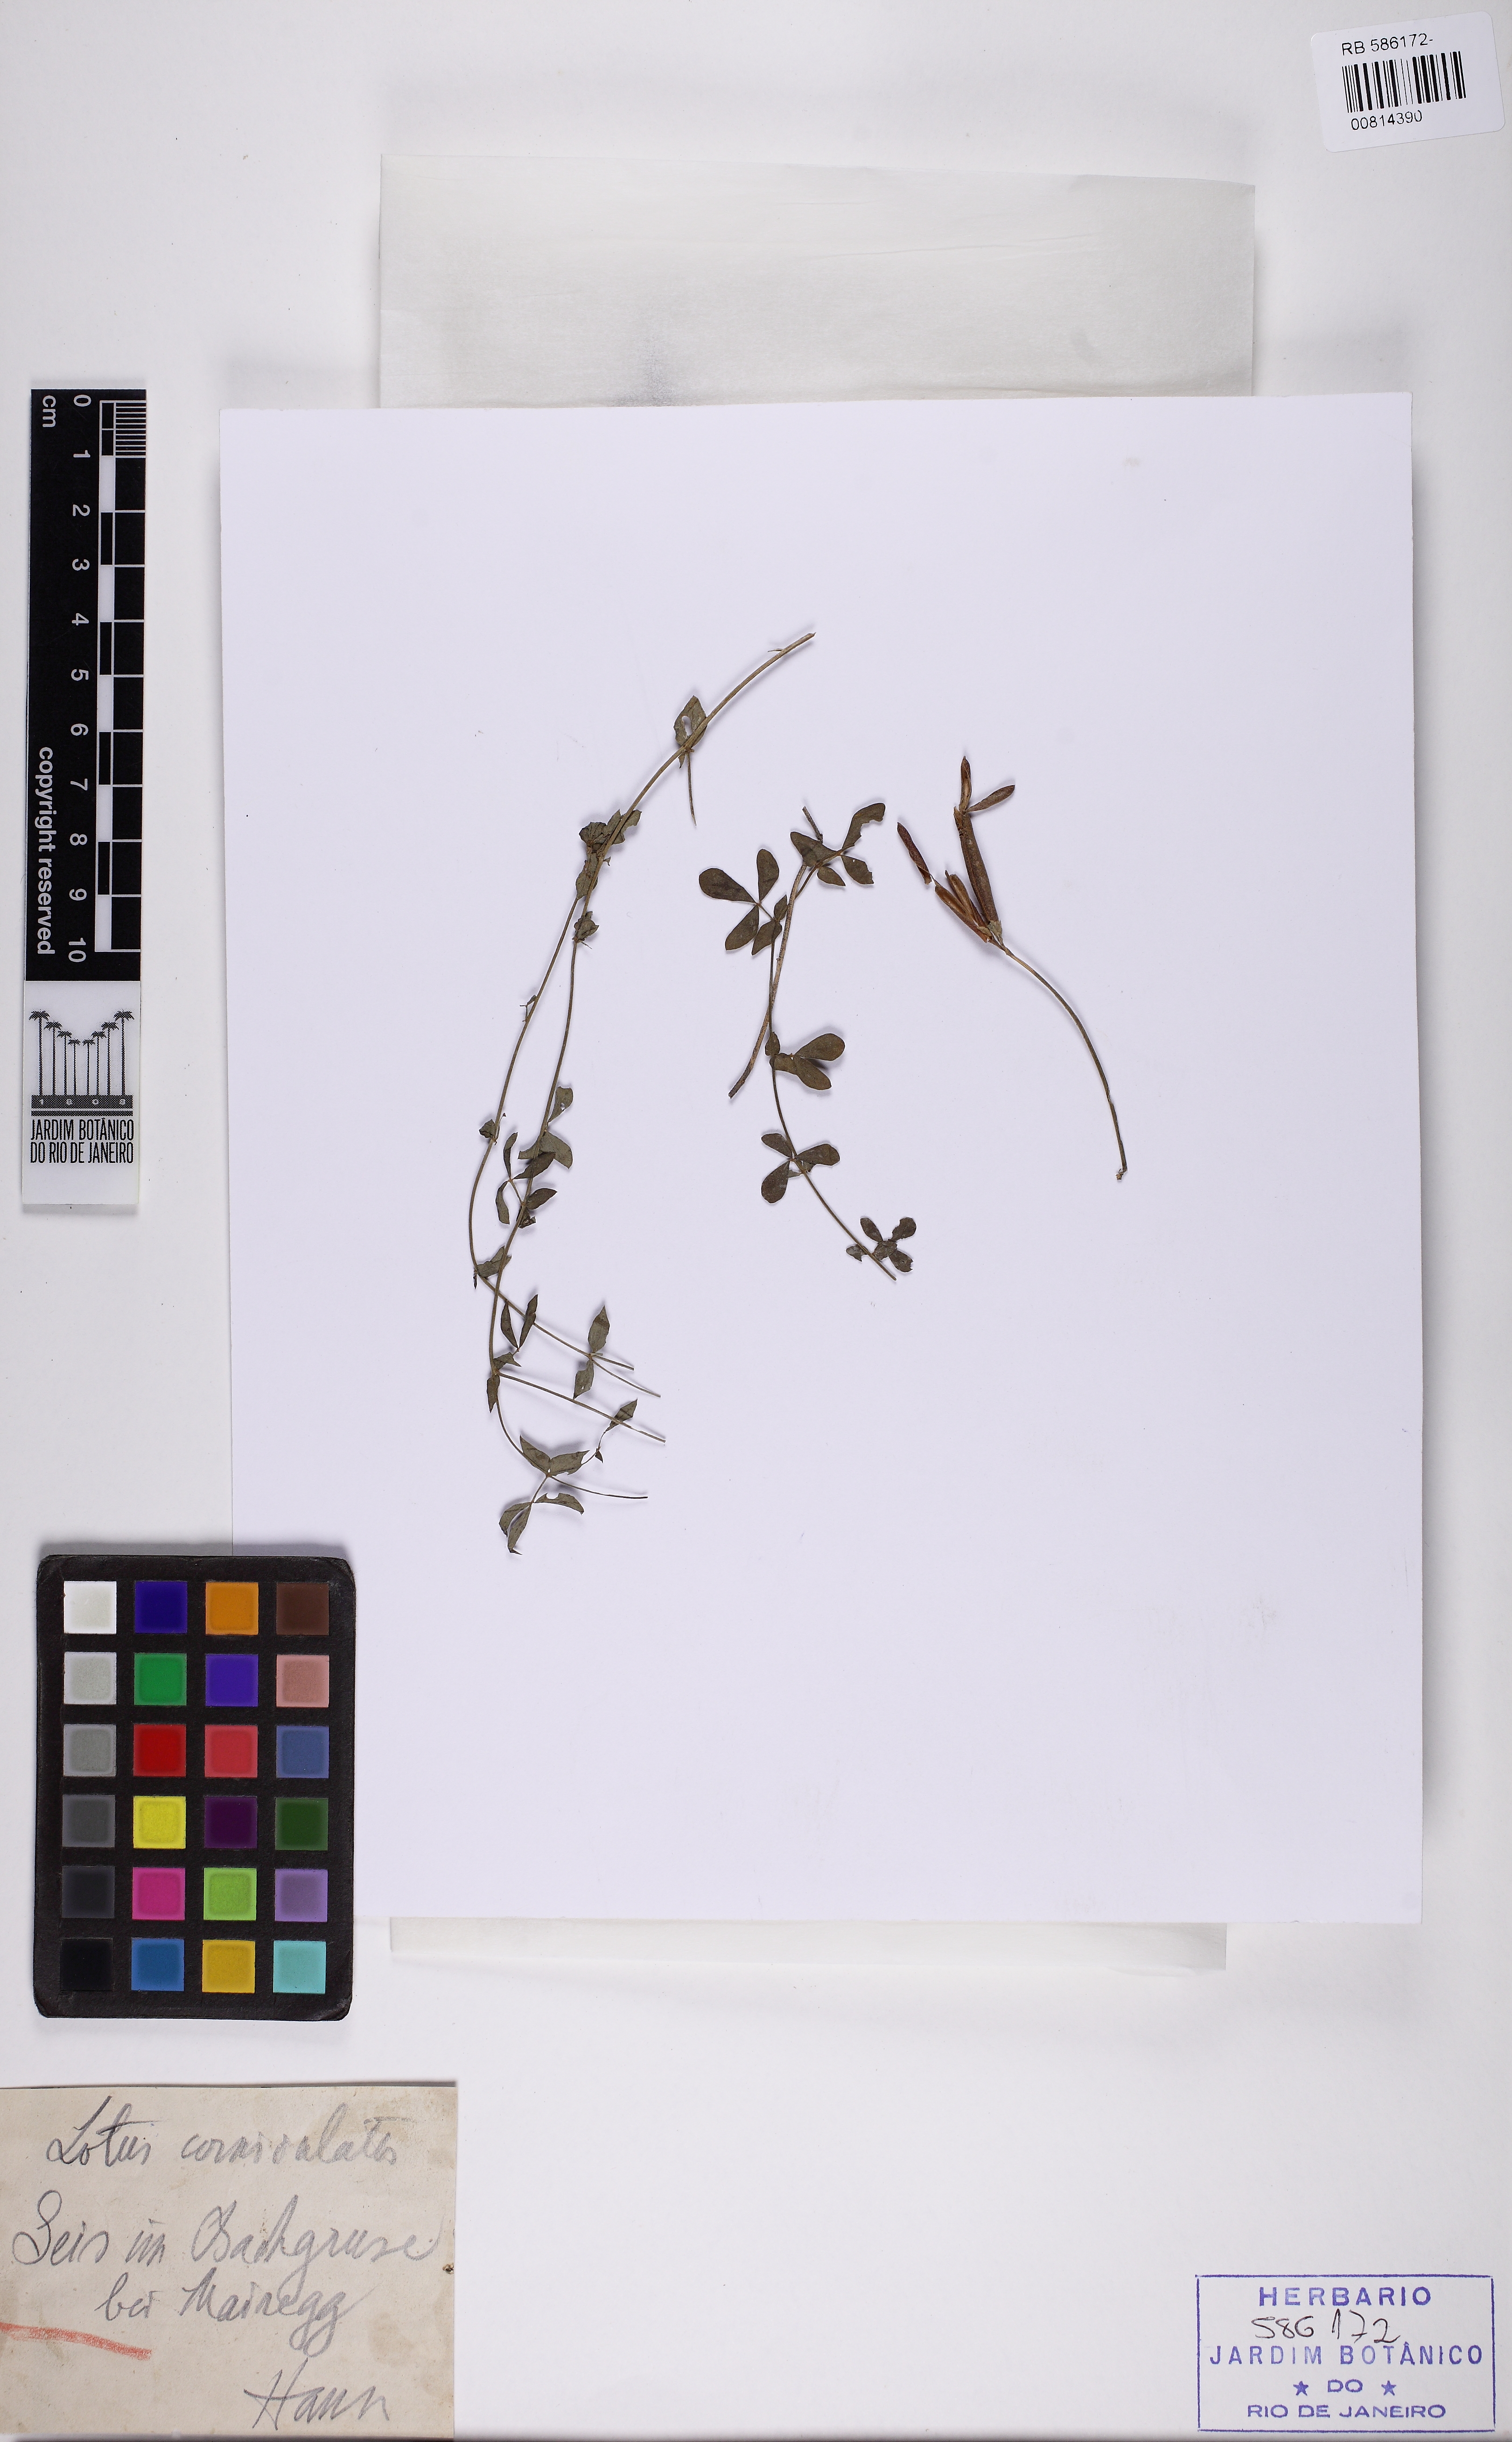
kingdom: Plantae
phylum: Tracheophyta
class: Magnoliopsida
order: Fabales
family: Fabaceae
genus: Lotus
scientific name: Lotus corniculatus
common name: Common bird's-foot-trefoil
